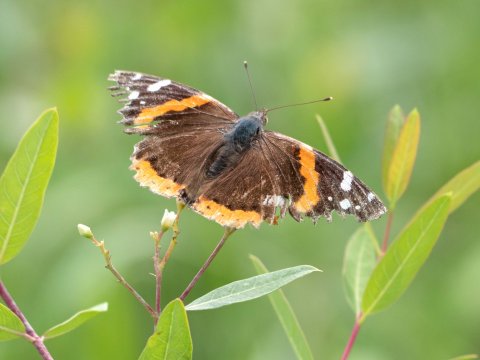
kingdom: Animalia
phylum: Arthropoda
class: Insecta
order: Lepidoptera
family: Nymphalidae
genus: Vanessa
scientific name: Vanessa atalanta
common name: Red Admiral
